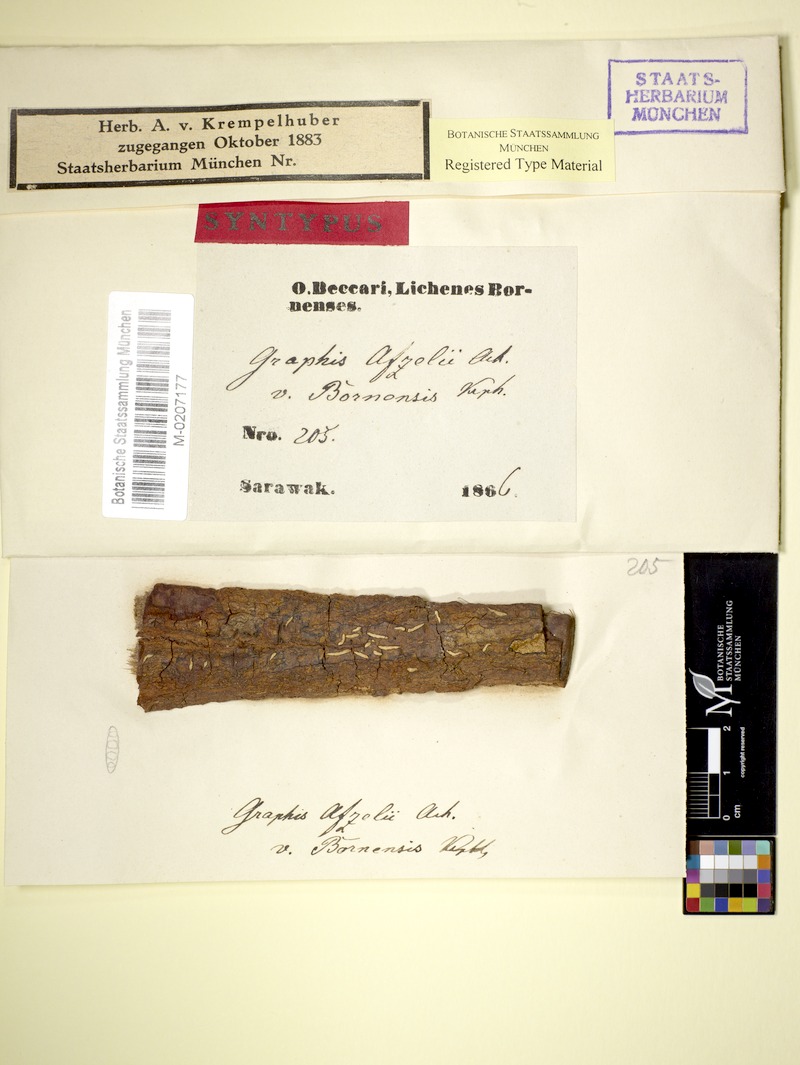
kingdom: Fungi
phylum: Ascomycota
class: Lecanoromycetes
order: Ostropales
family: Graphidaceae
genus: Dyplolabia
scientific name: Dyplolabia afzelii
